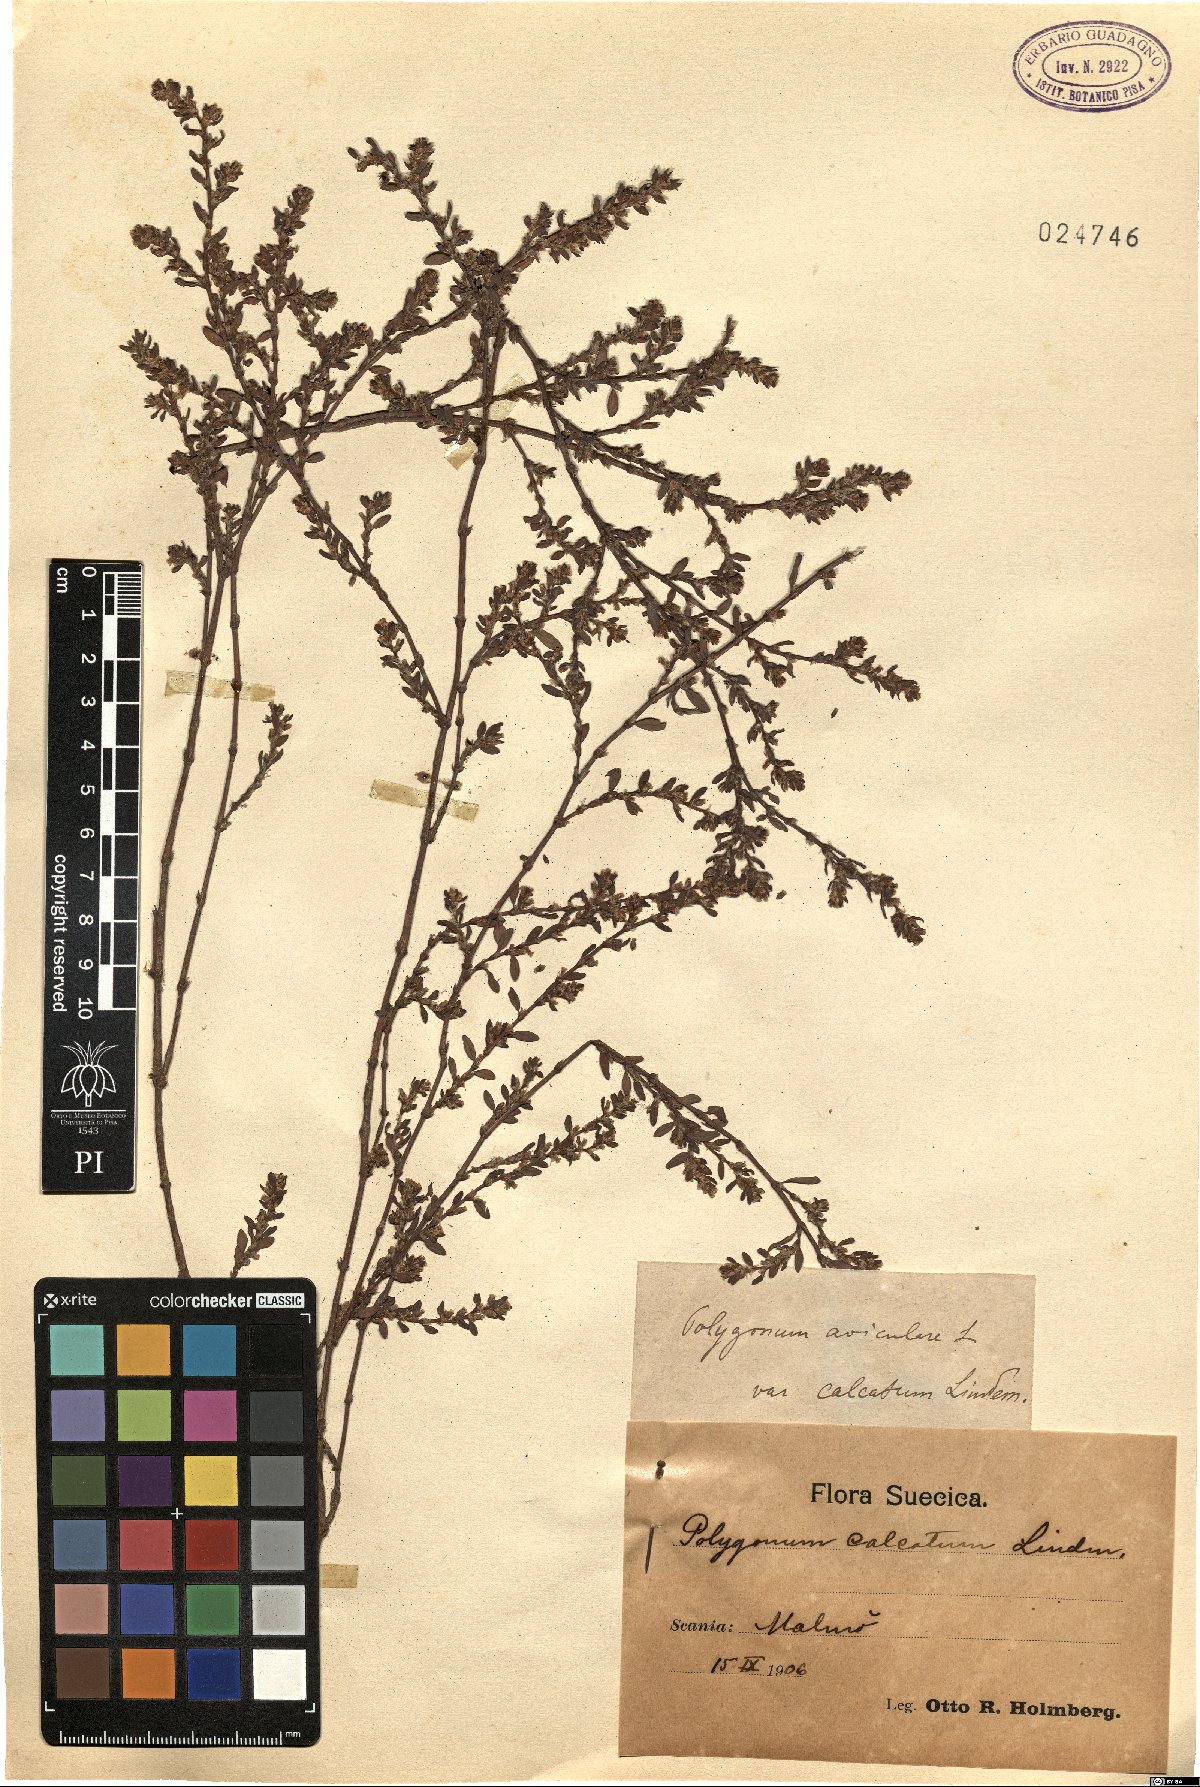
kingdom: Plantae
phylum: Tracheophyta
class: Magnoliopsida
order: Caryophyllales
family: Polygonaceae
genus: Polygonum
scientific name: Polygonum arenastrum
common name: Equal-leaved knotgrass
